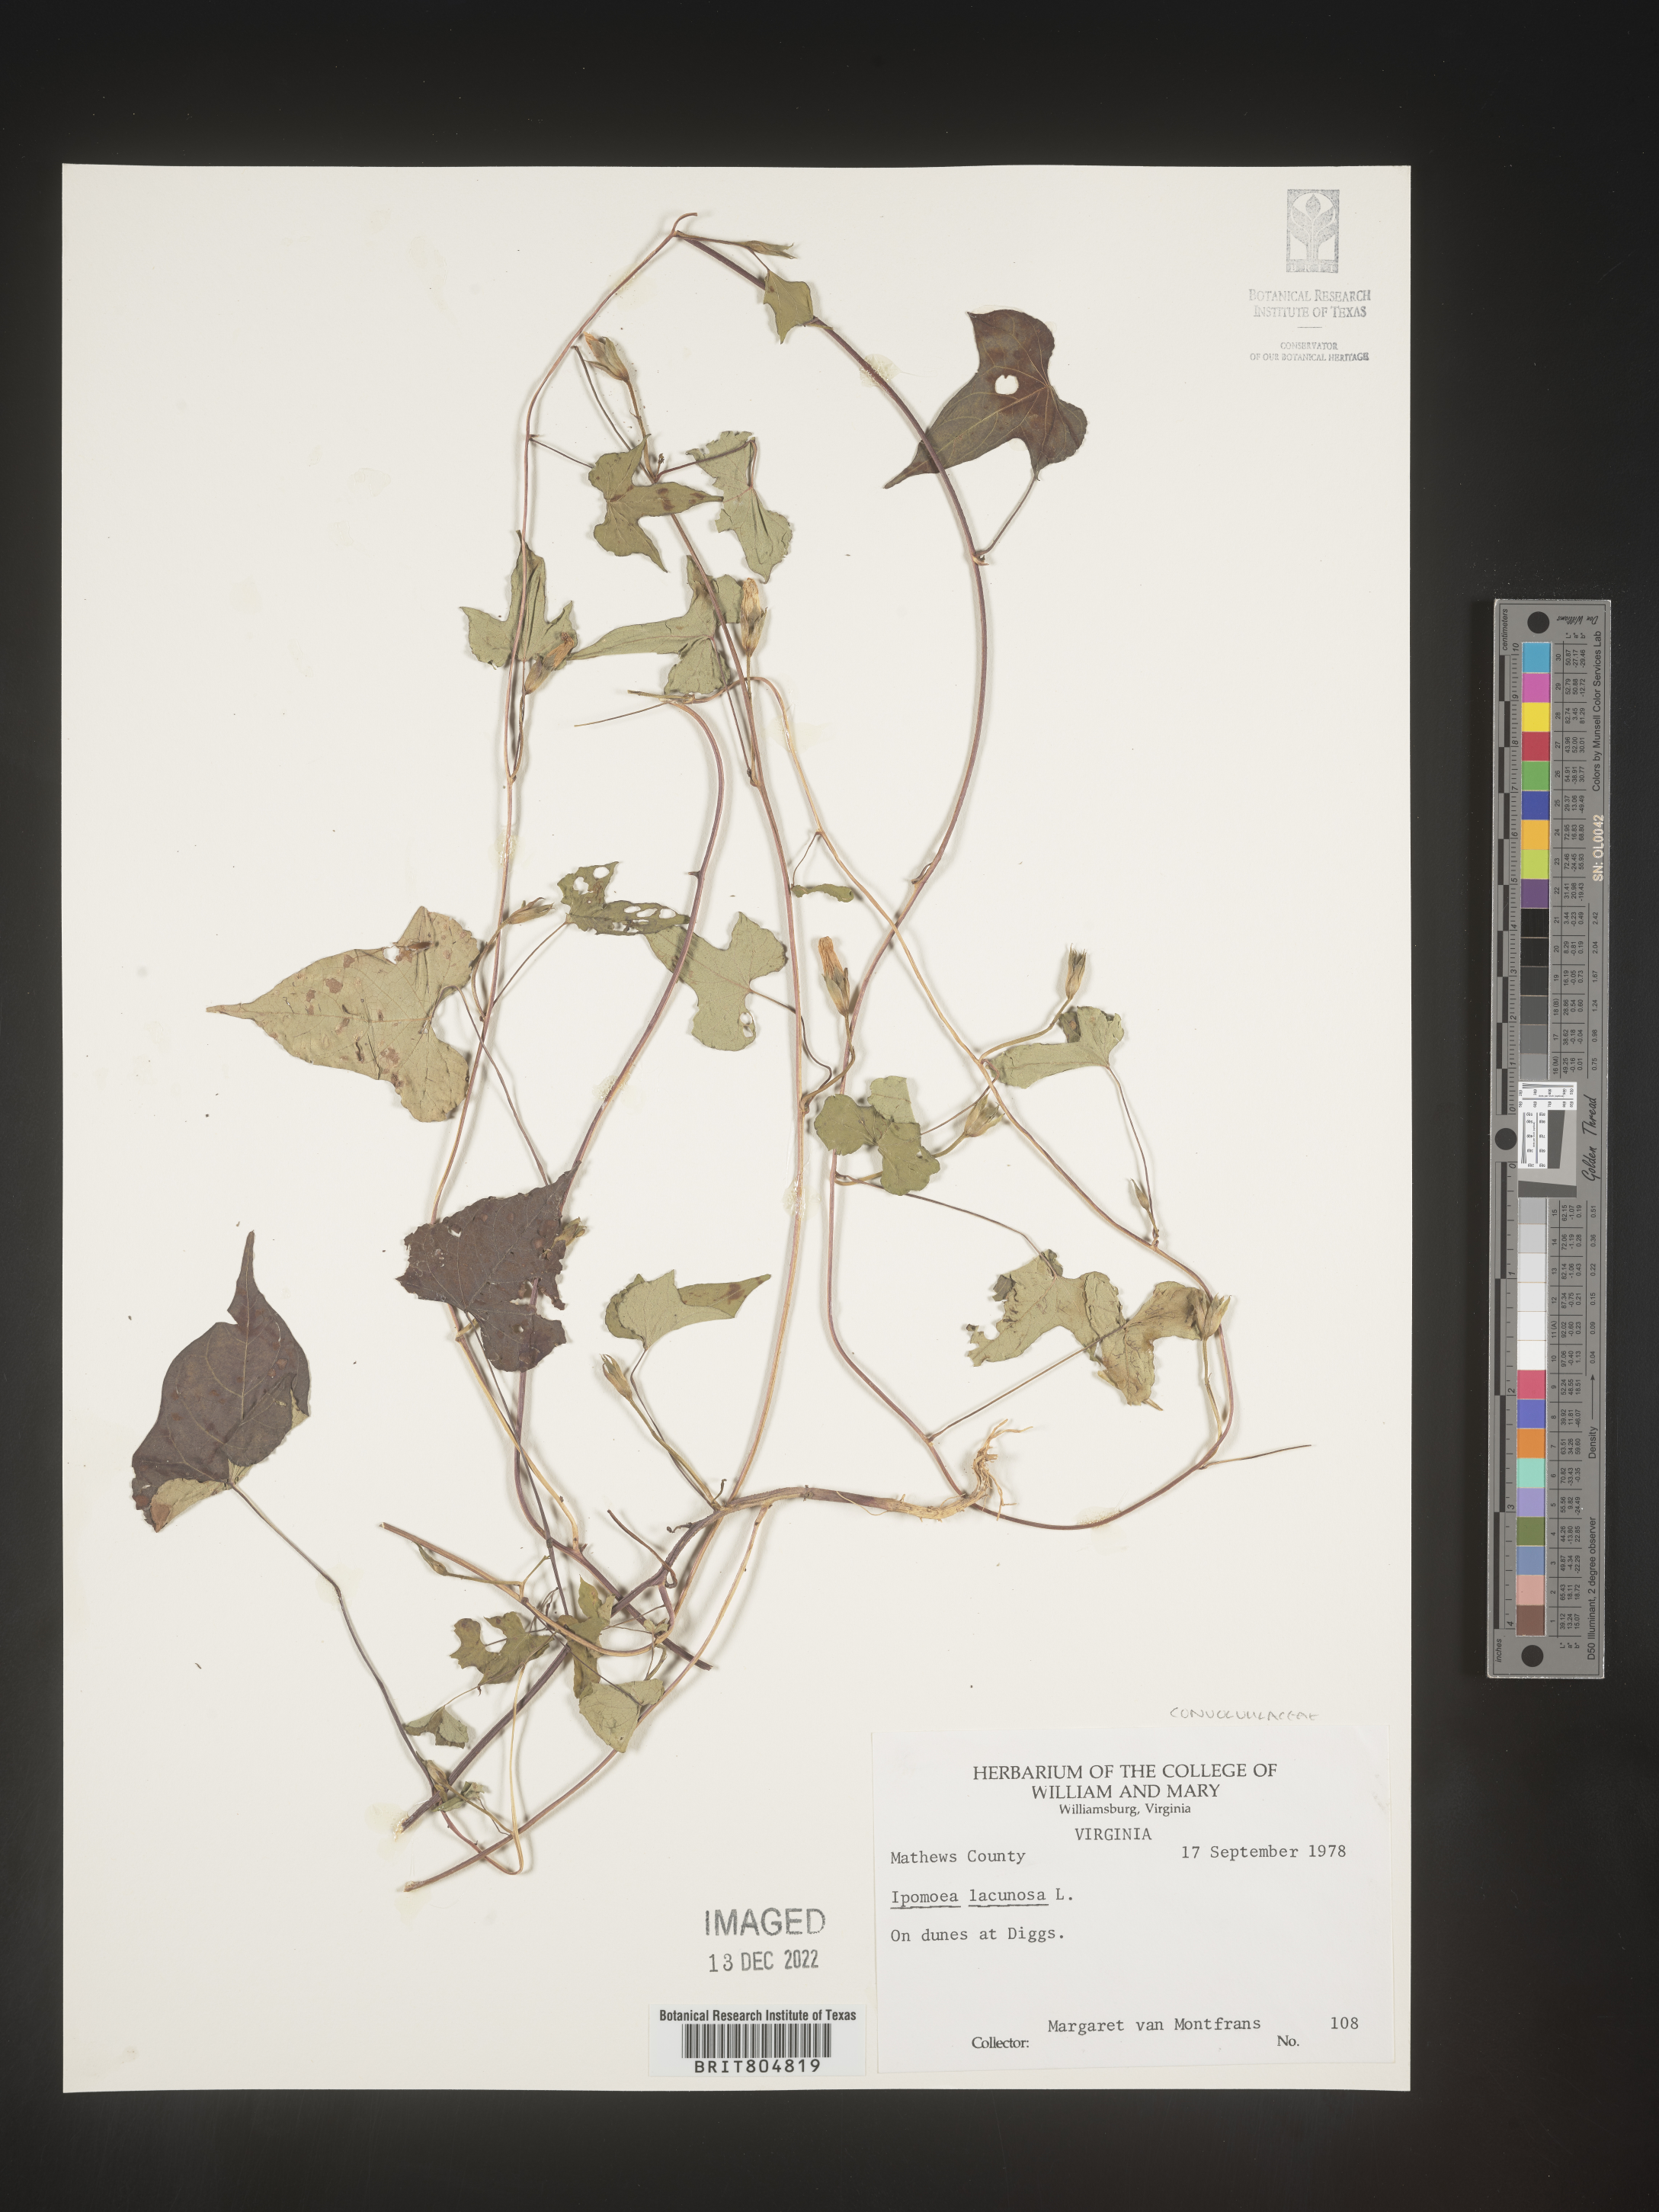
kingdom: Plantae
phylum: Tracheophyta
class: Magnoliopsida
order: Solanales
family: Convolvulaceae
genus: Ipomoea
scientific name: Ipomoea lacunosa
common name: White morning-glory
